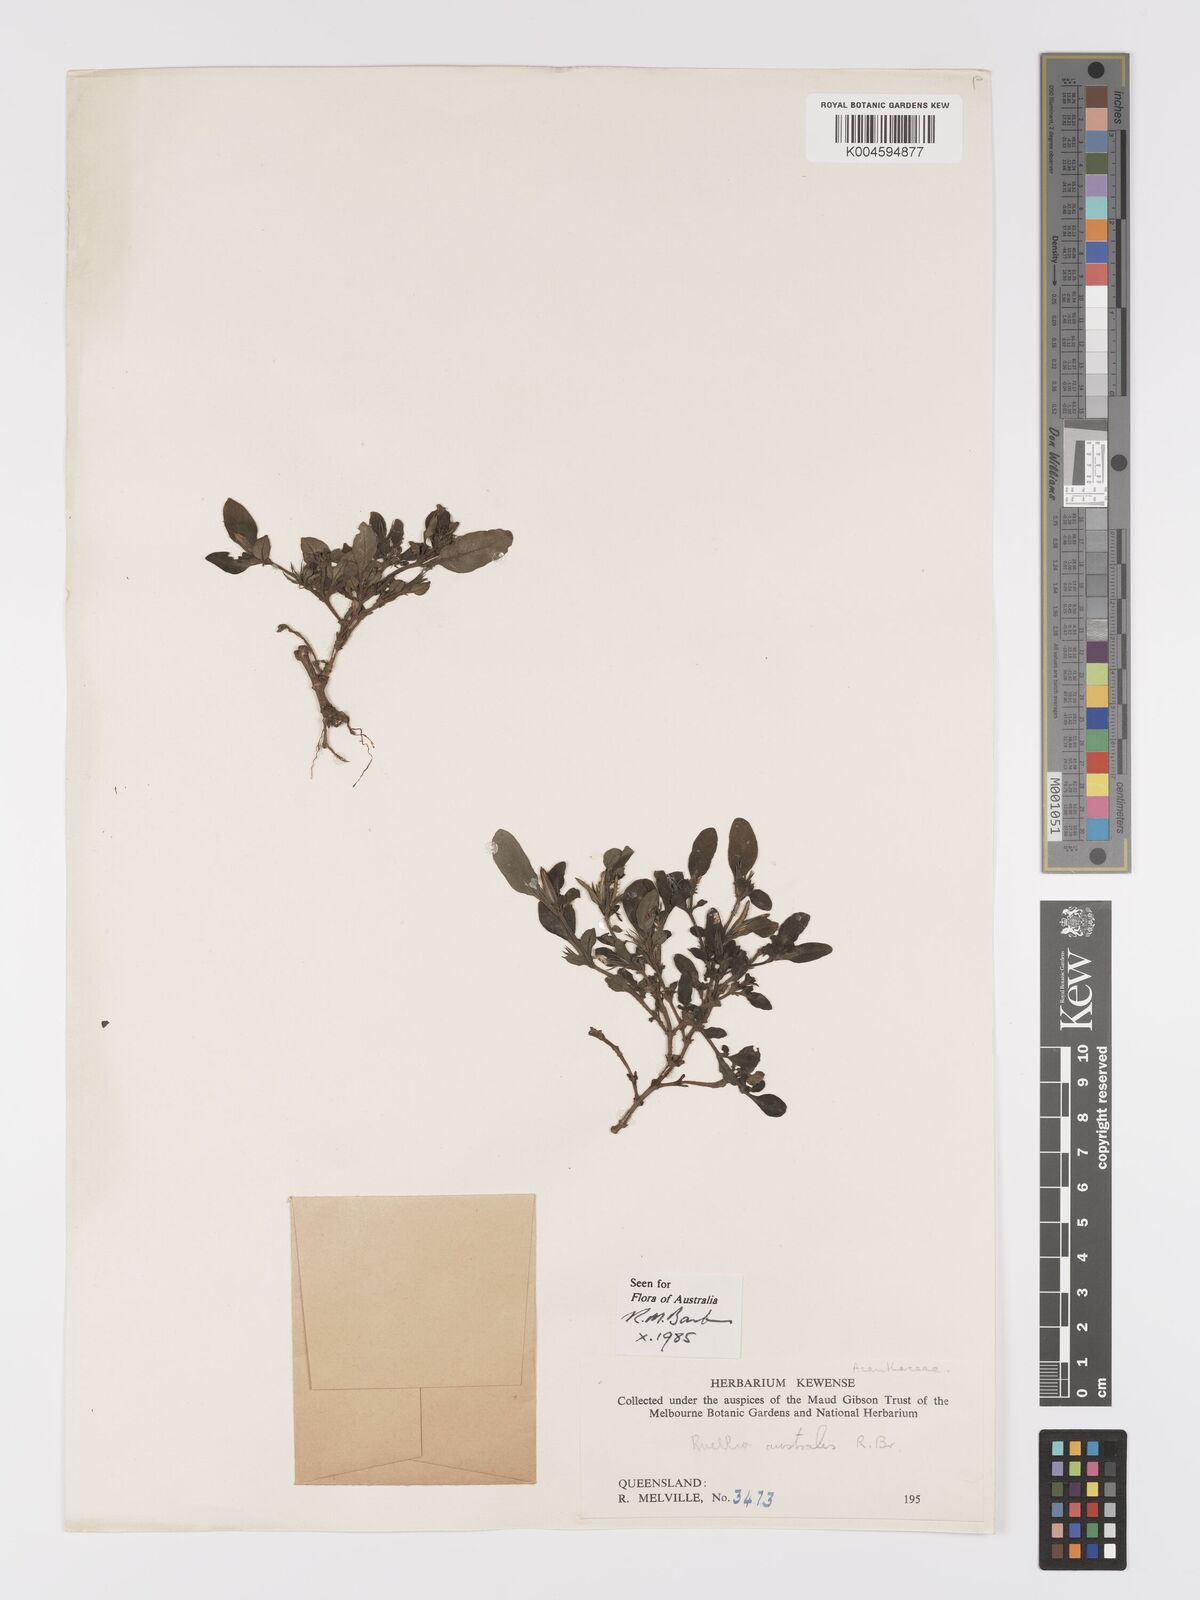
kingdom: Plantae
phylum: Tracheophyta
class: Magnoliopsida
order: Lamiales
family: Acanthaceae
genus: Brunoniella
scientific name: Brunoniella australis
